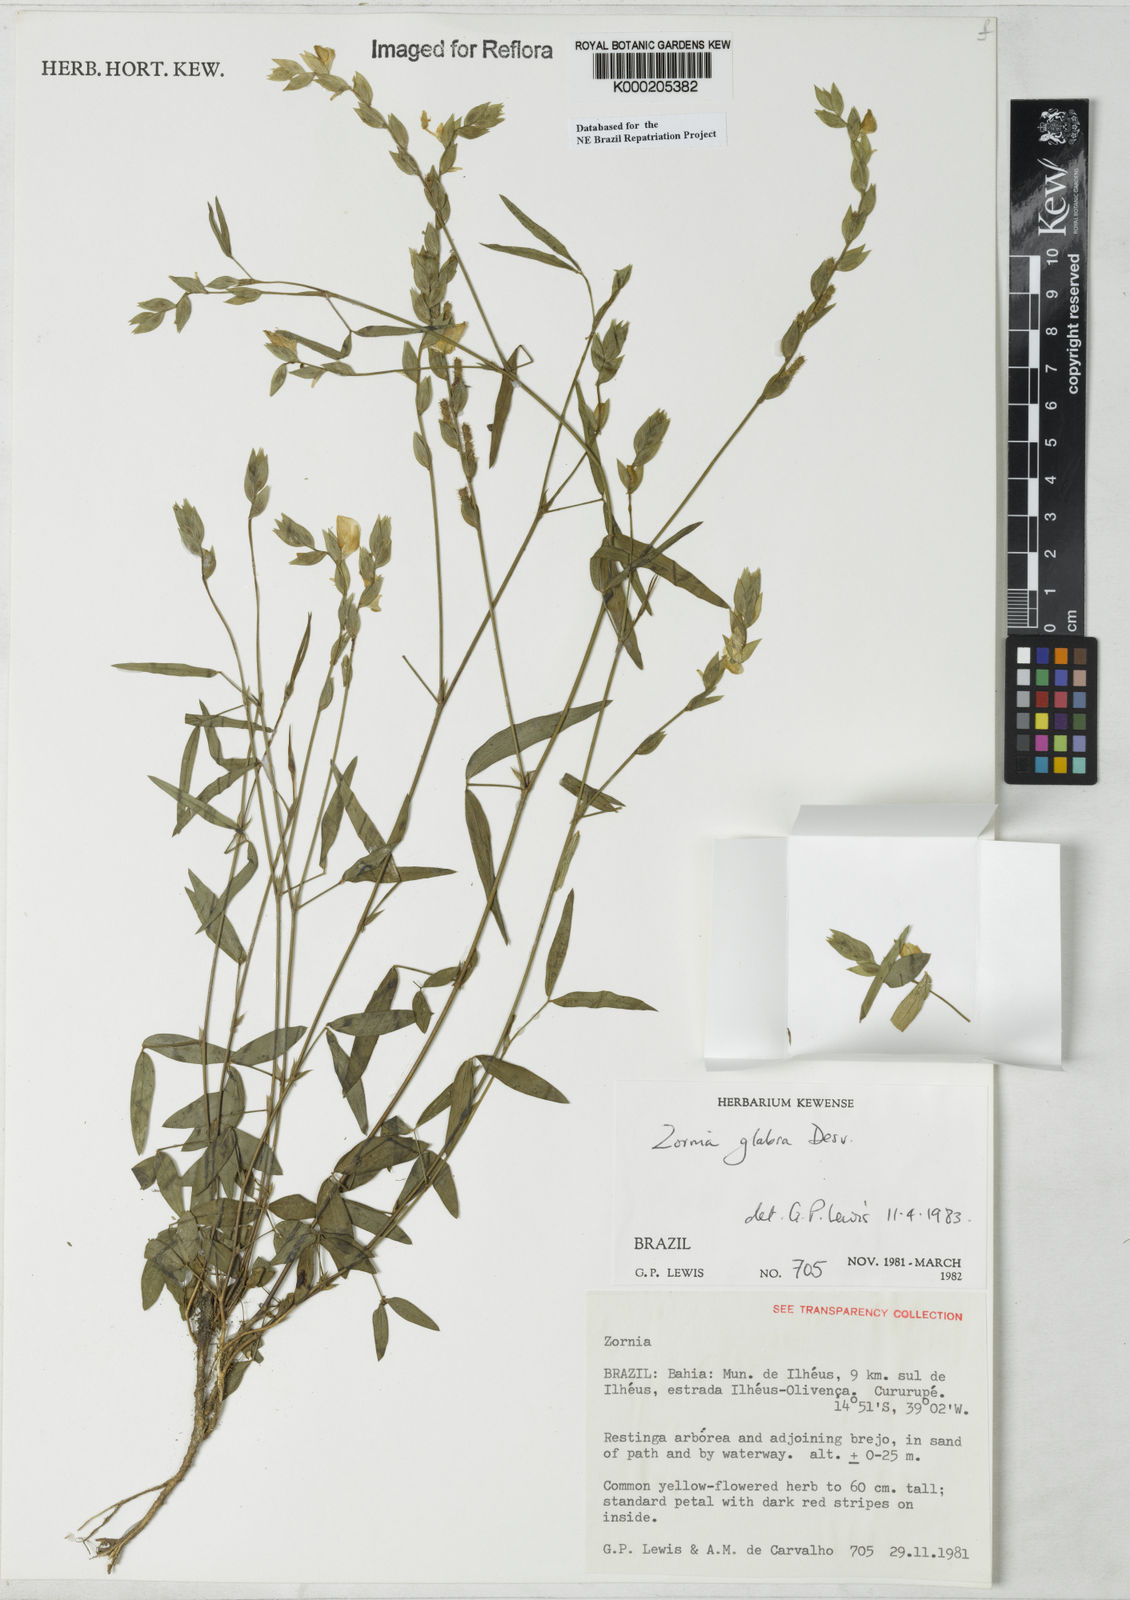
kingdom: Plantae
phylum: Tracheophyta
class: Magnoliopsida
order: Fabales
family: Fabaceae
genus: Zornia
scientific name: Zornia glabra
